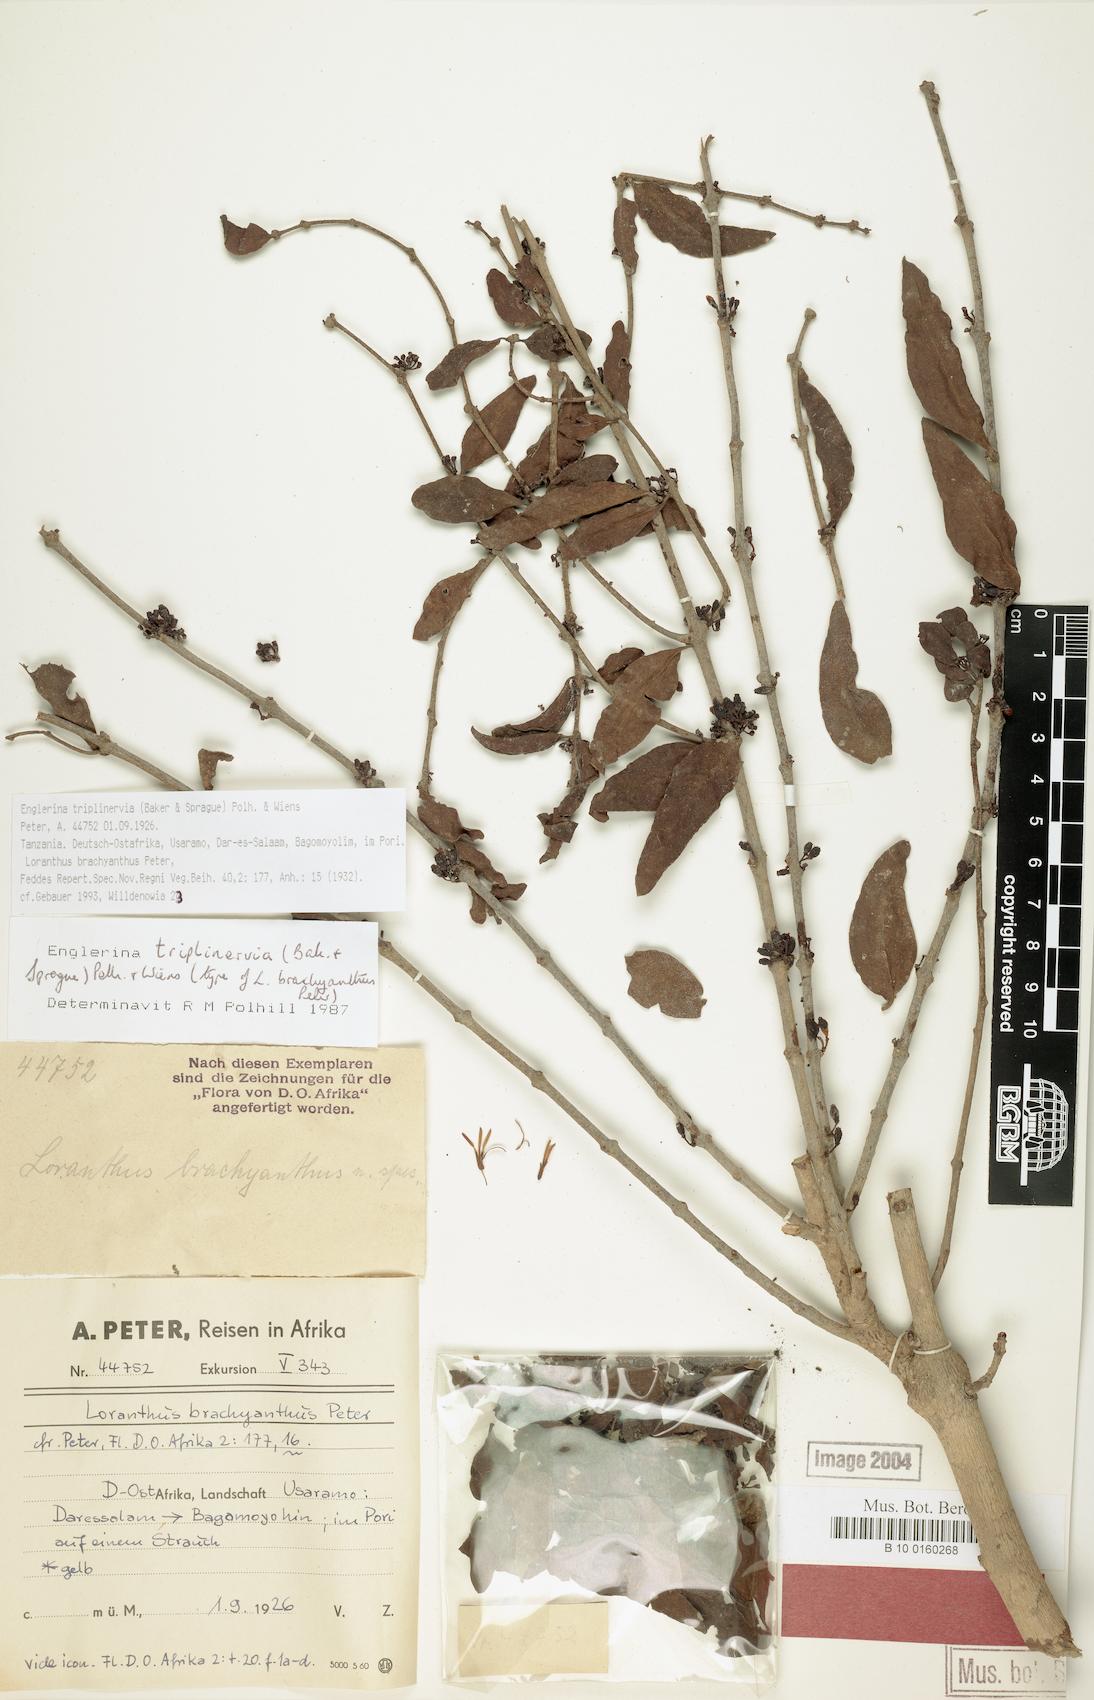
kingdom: Plantae
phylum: Tracheophyta
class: Magnoliopsida
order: Santalales
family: Loranthaceae
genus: Englerina
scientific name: Englerina triplinervia
